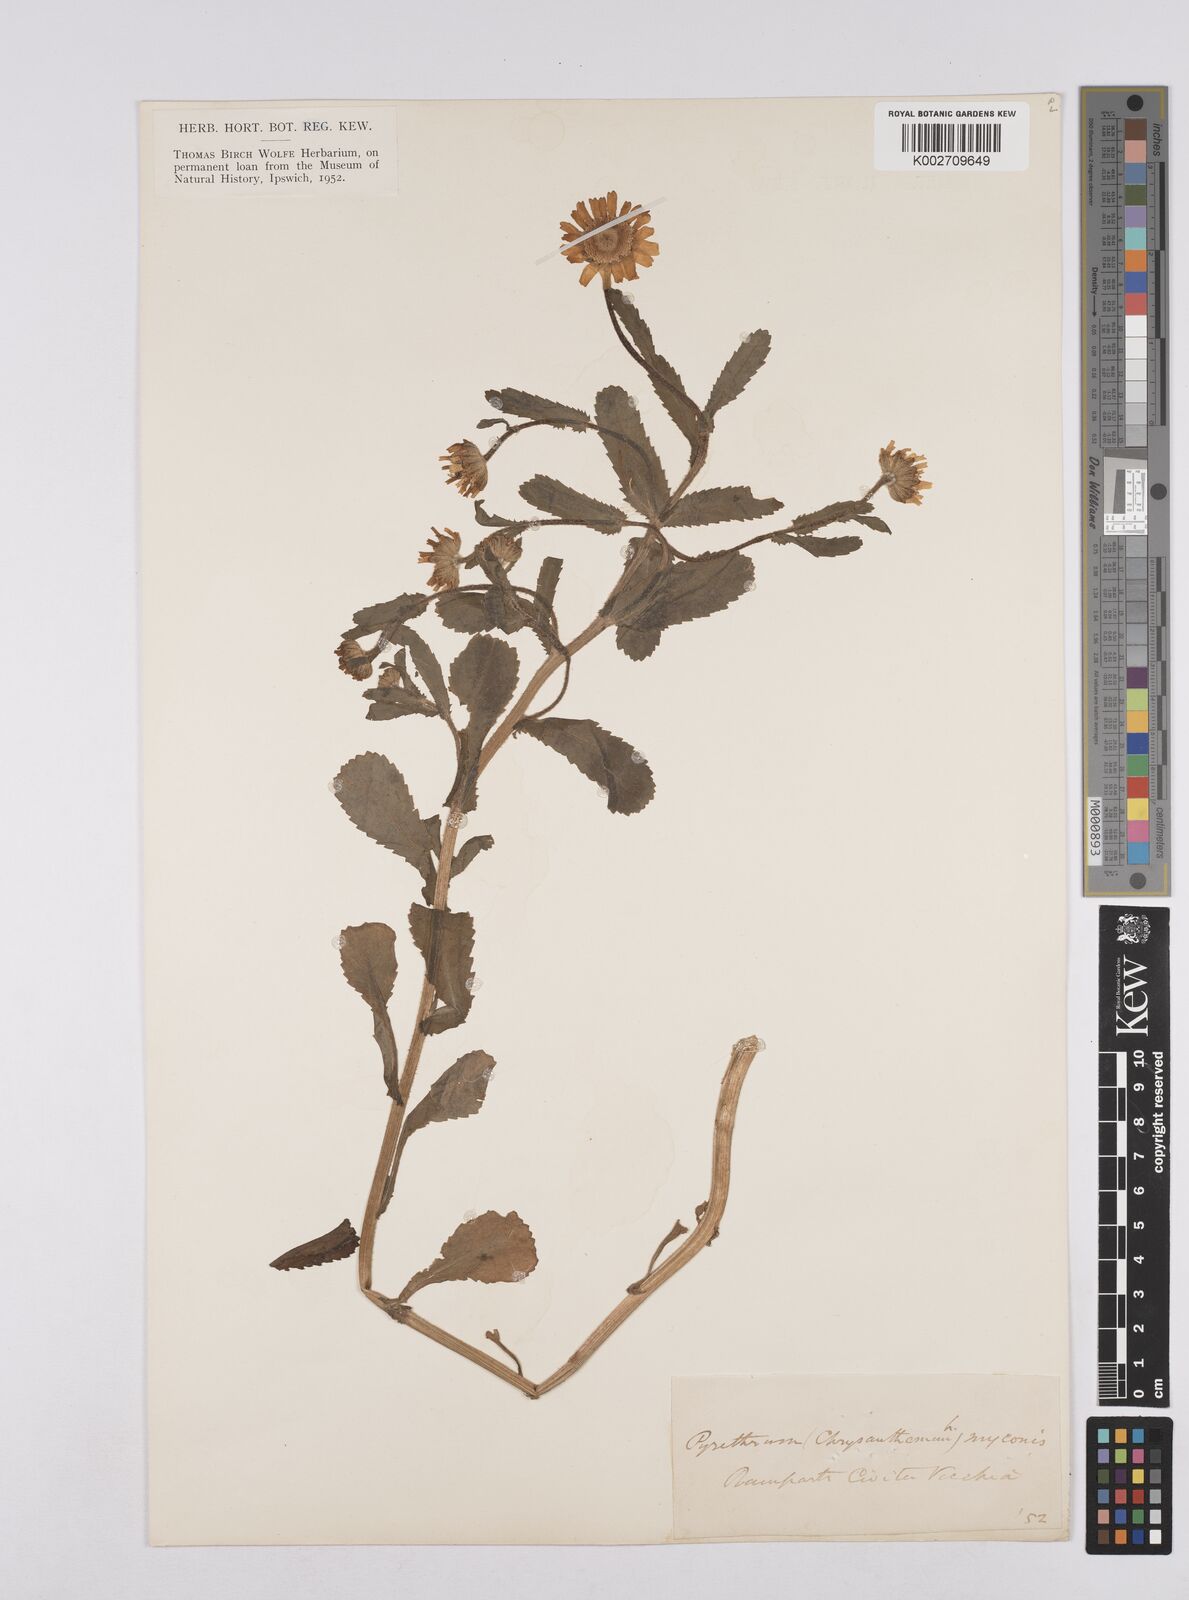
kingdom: Plantae
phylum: Tracheophyta
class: Magnoliopsida
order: Asterales
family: Asteraceae
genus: Coleostephus
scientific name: Coleostephus myconis
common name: Mediterranean marigold
